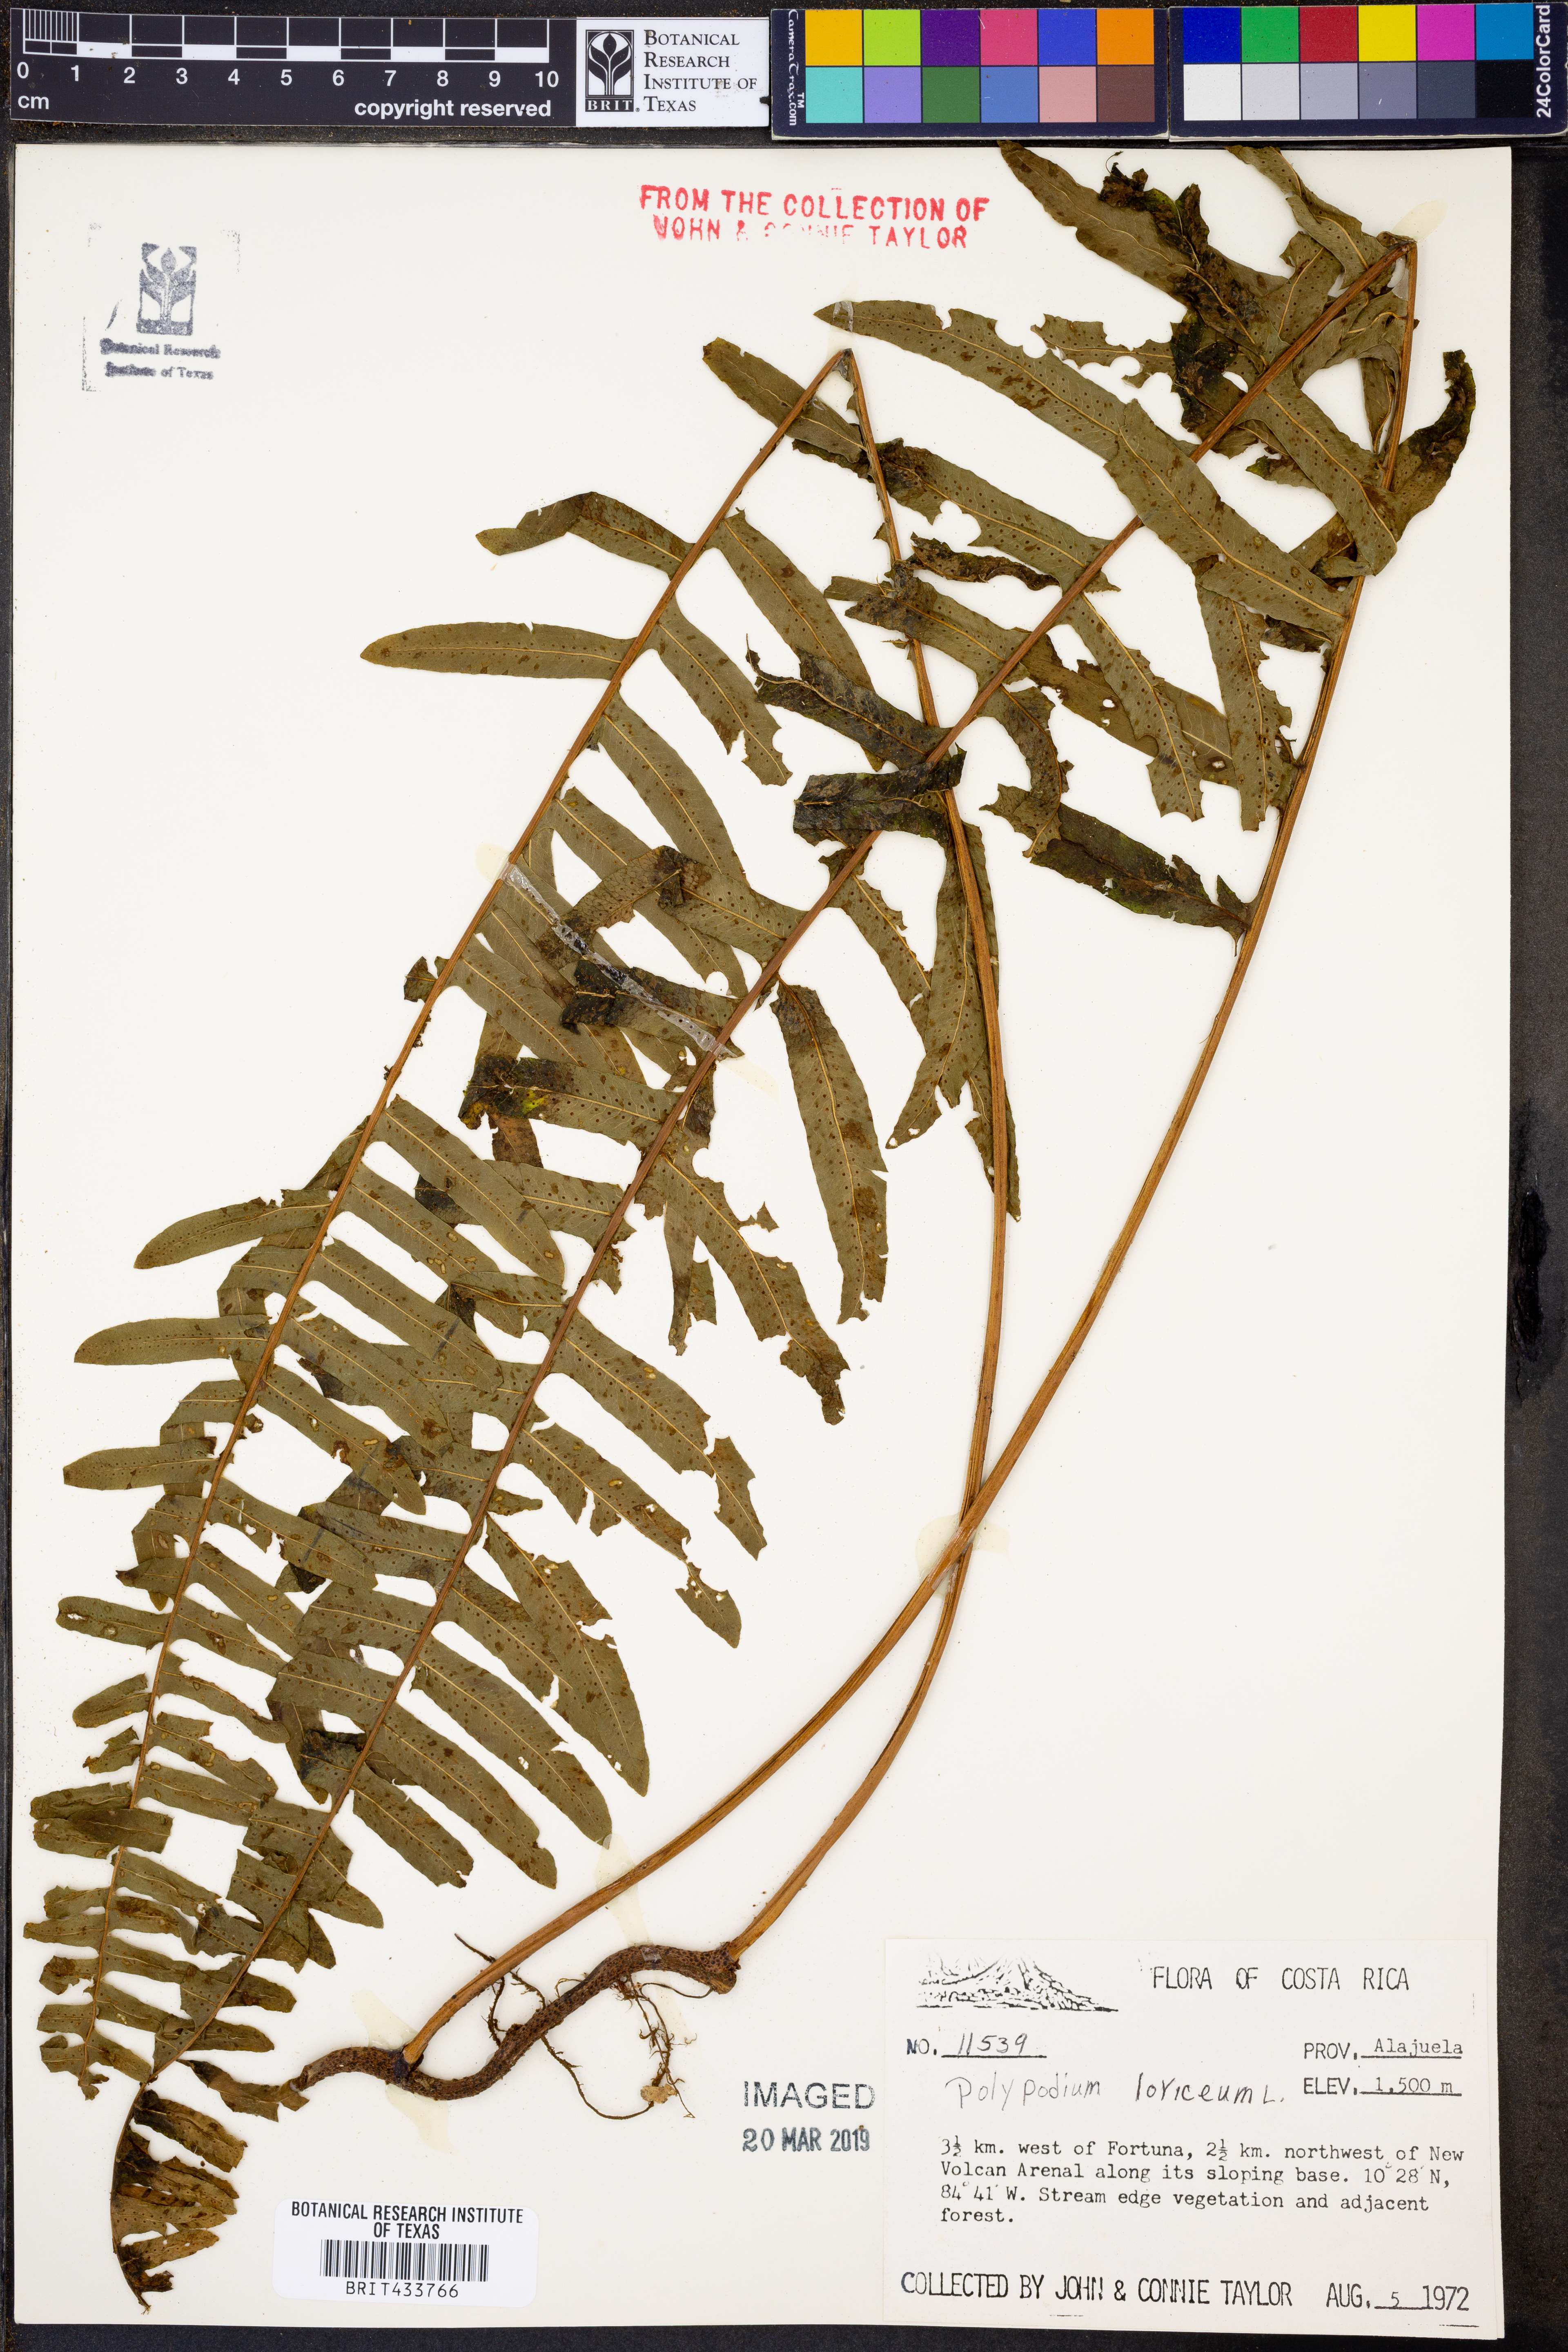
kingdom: Plantae
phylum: Tracheophyta
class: Polypodiopsida
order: Polypodiales
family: Polypodiaceae
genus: Serpocaulon
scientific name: Serpocaulon loriceum
